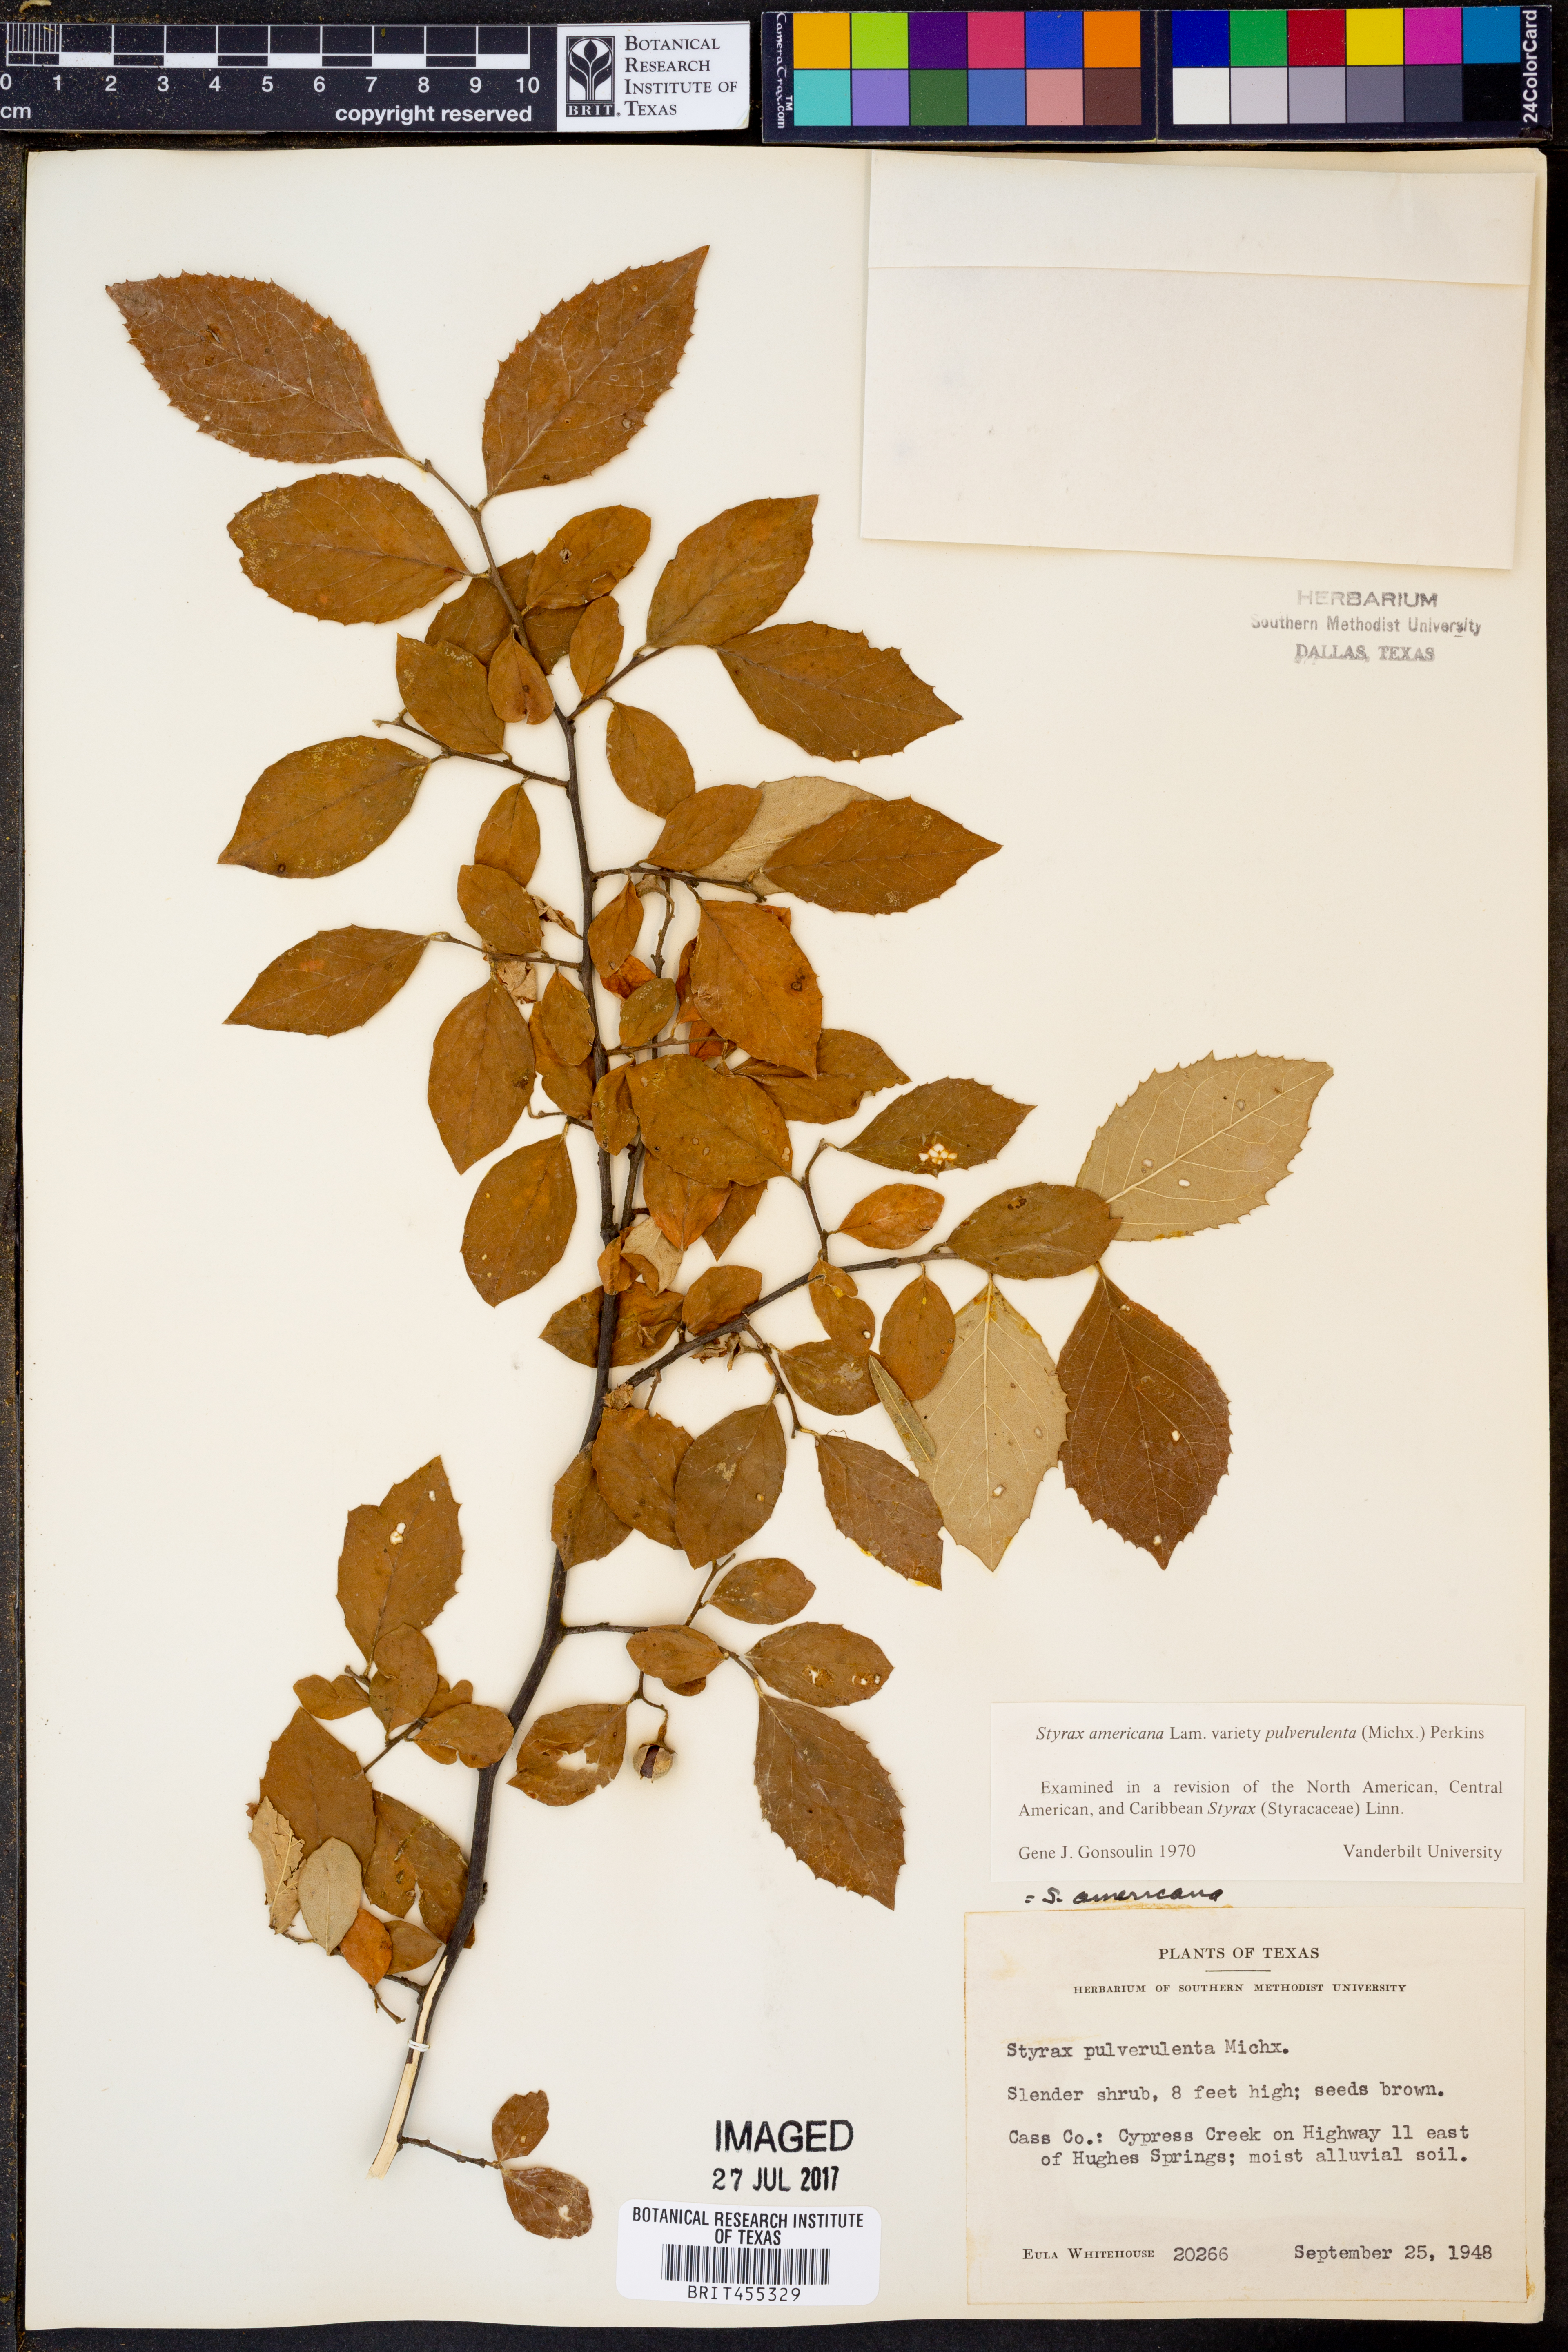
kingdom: Plantae
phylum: Tracheophyta
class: Magnoliopsida
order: Ericales
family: Styracaceae
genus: Styrax
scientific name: Styrax americanus
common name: American snowbell
